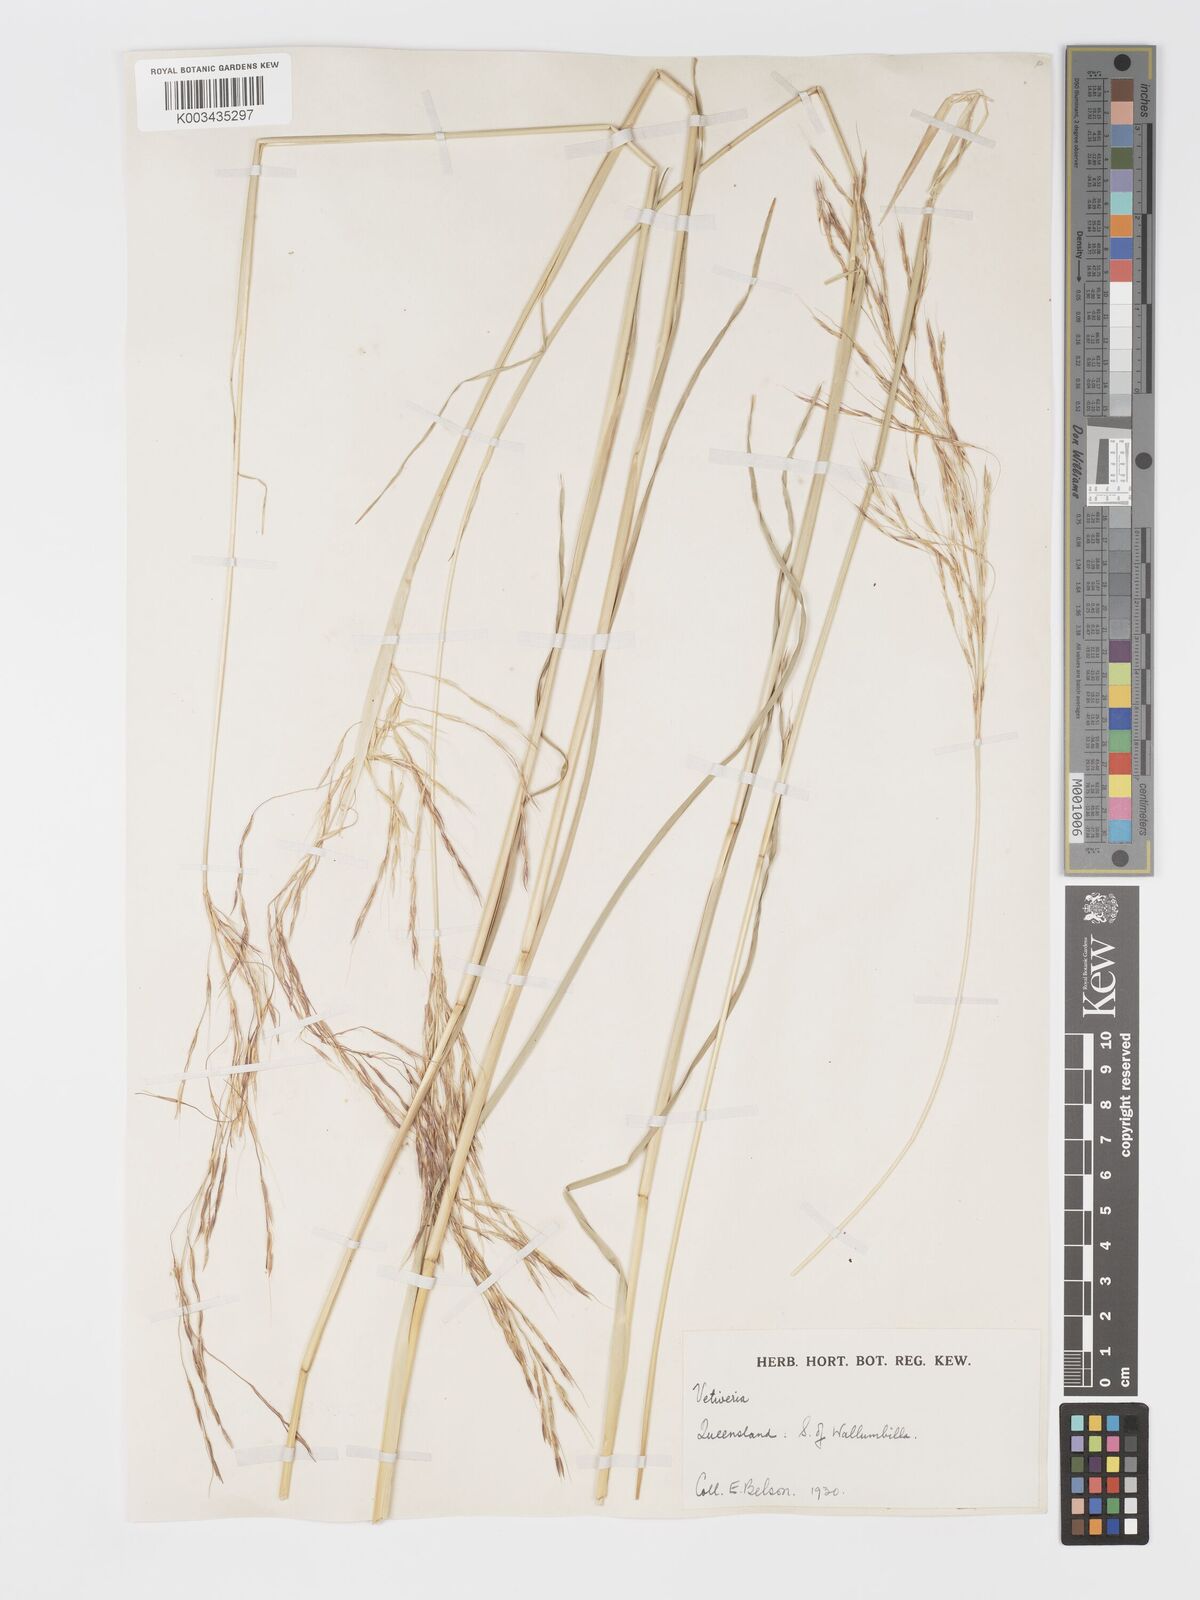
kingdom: Plantae
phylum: Tracheophyta
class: Liliopsida
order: Poales
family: Poaceae
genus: Chrysopogon
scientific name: Chrysopogon filipes
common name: Australian vetiver
